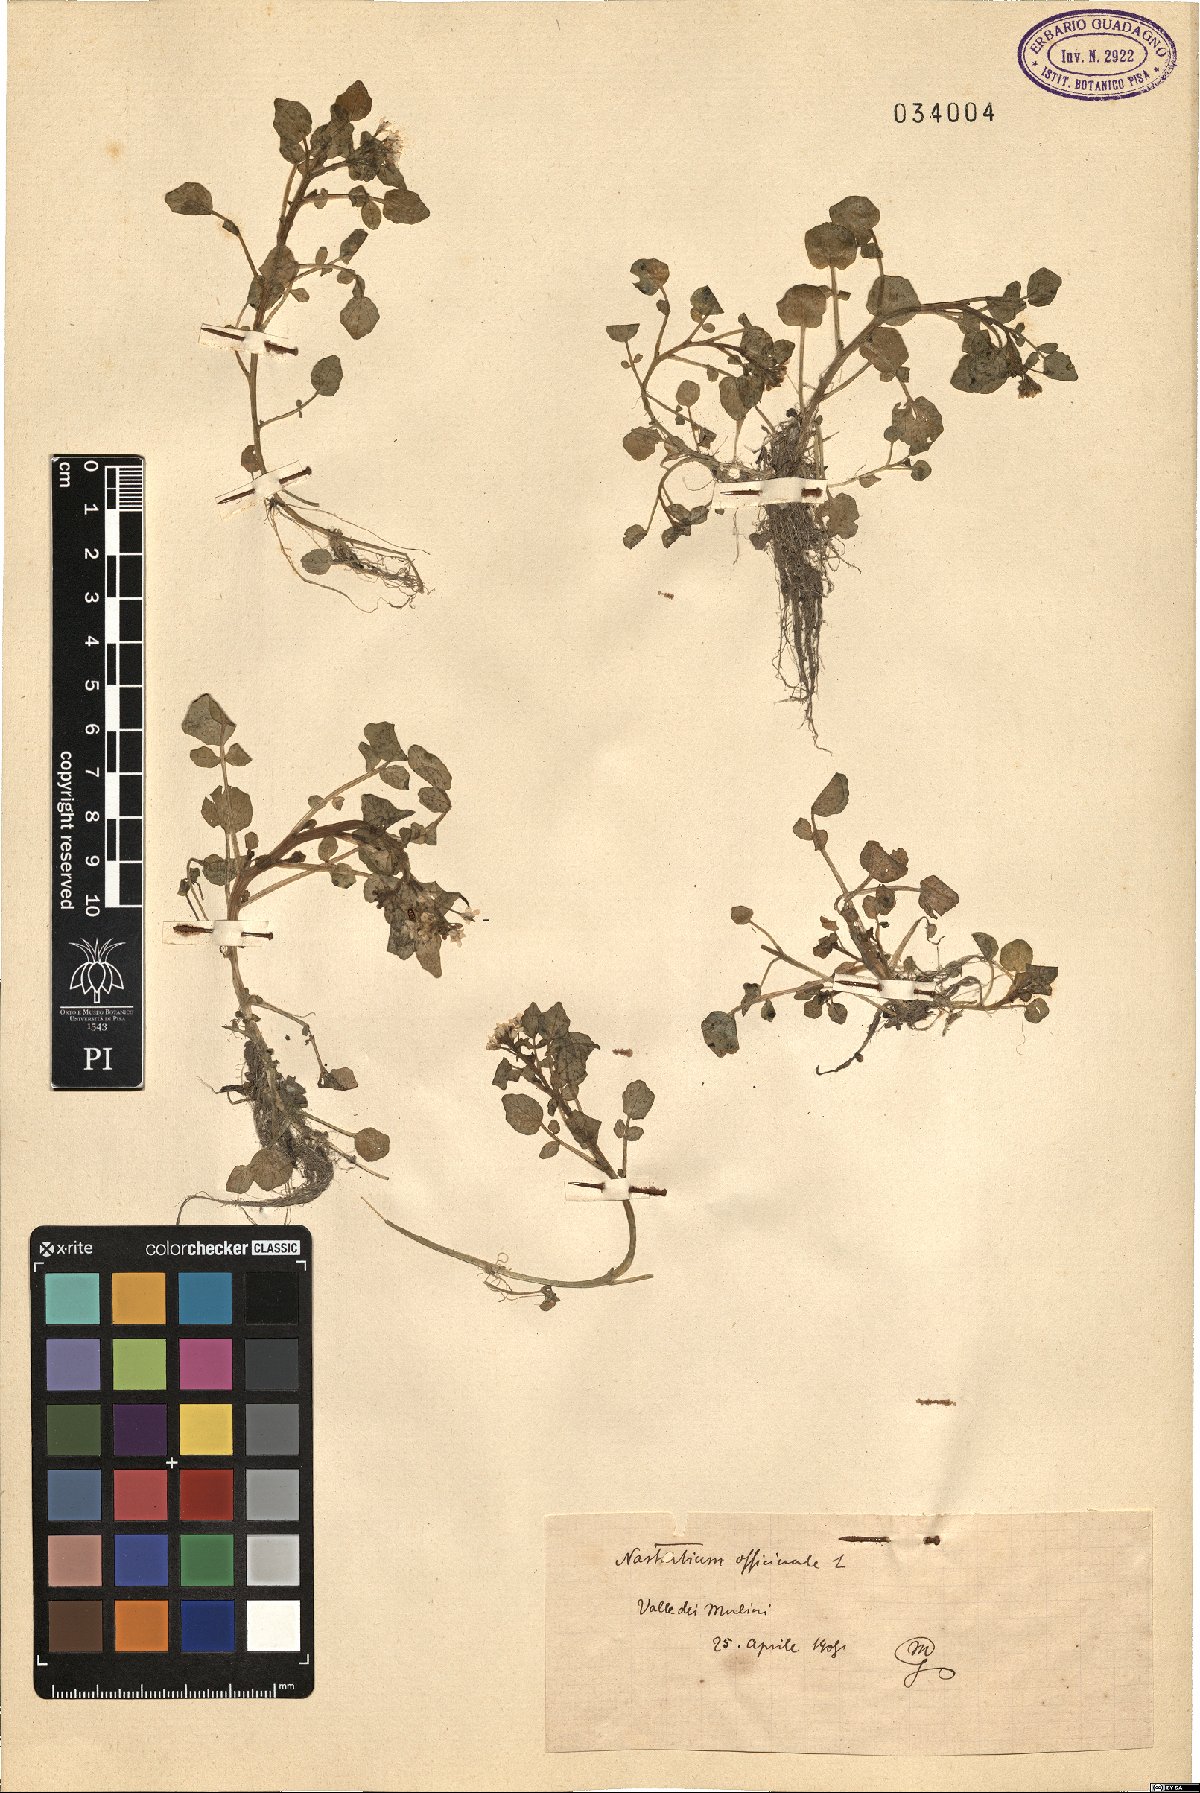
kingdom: Plantae
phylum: Tracheophyta
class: Magnoliopsida
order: Brassicales
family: Brassicaceae
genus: Nasturtium
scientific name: Nasturtium officinale
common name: Watercress
